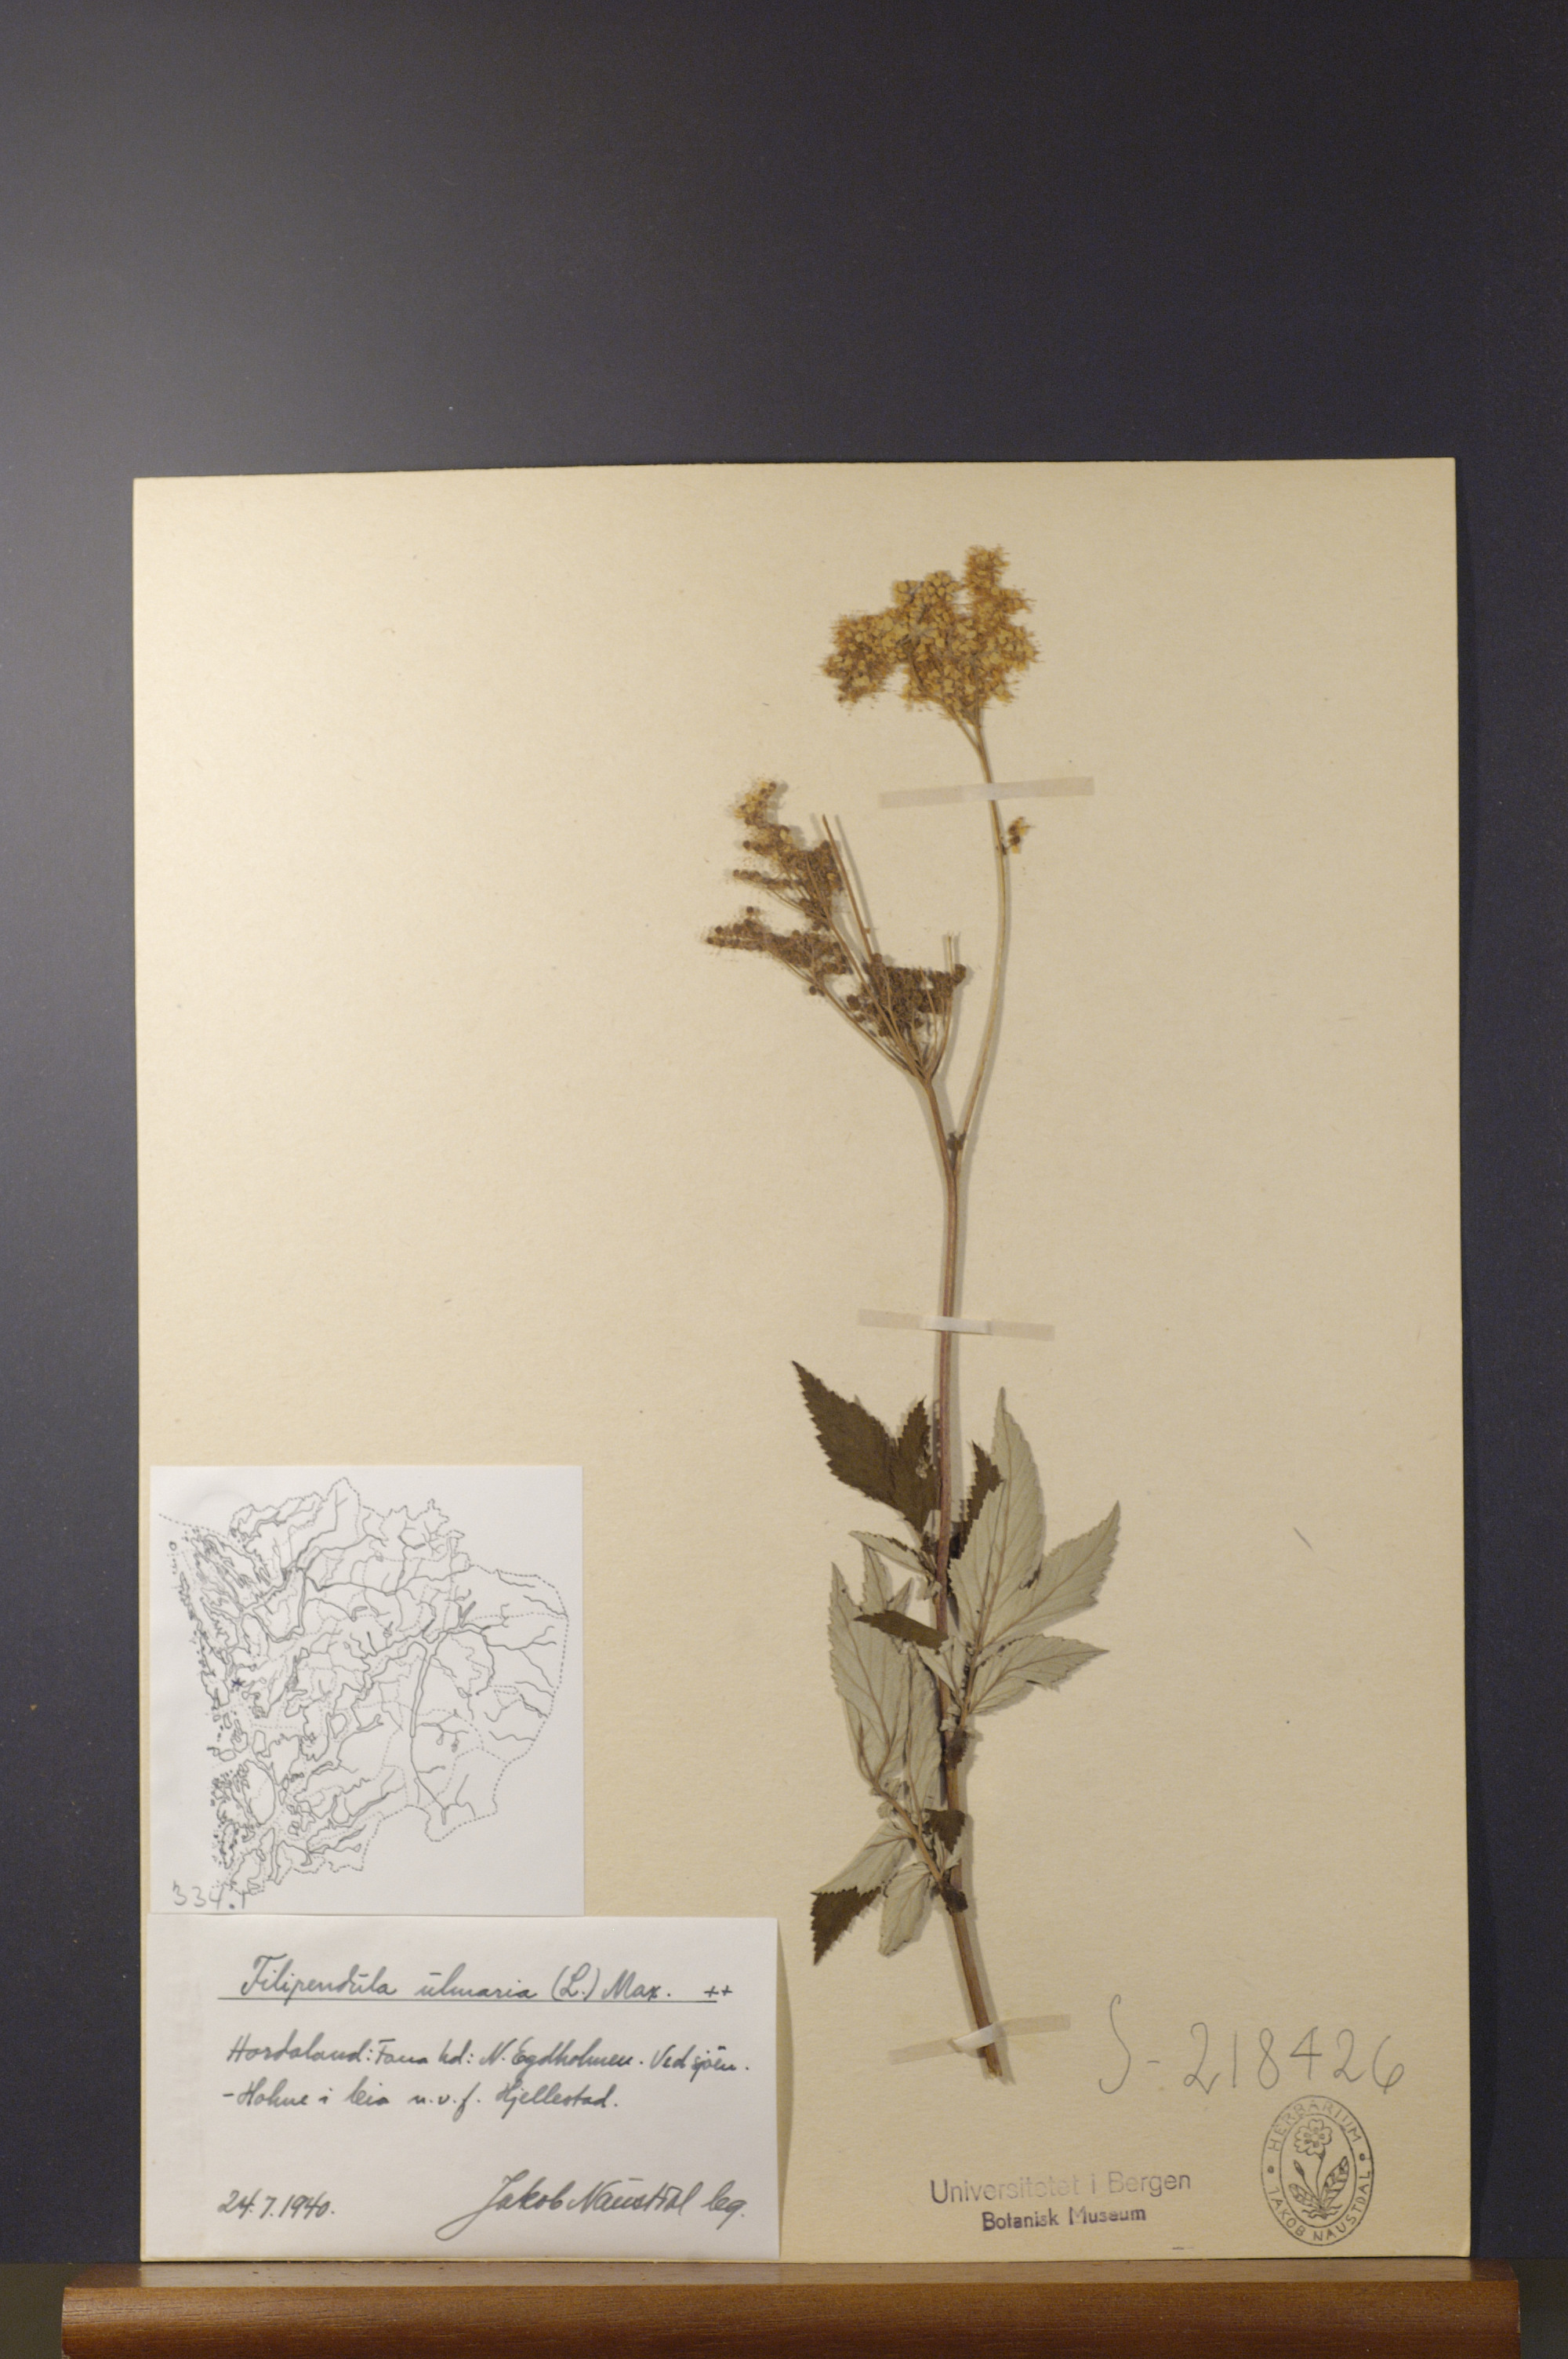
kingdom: Plantae
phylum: Tracheophyta
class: Magnoliopsida
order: Rosales
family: Rosaceae
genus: Filipendula
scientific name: Filipendula ulmaria
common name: Meadowsweet
